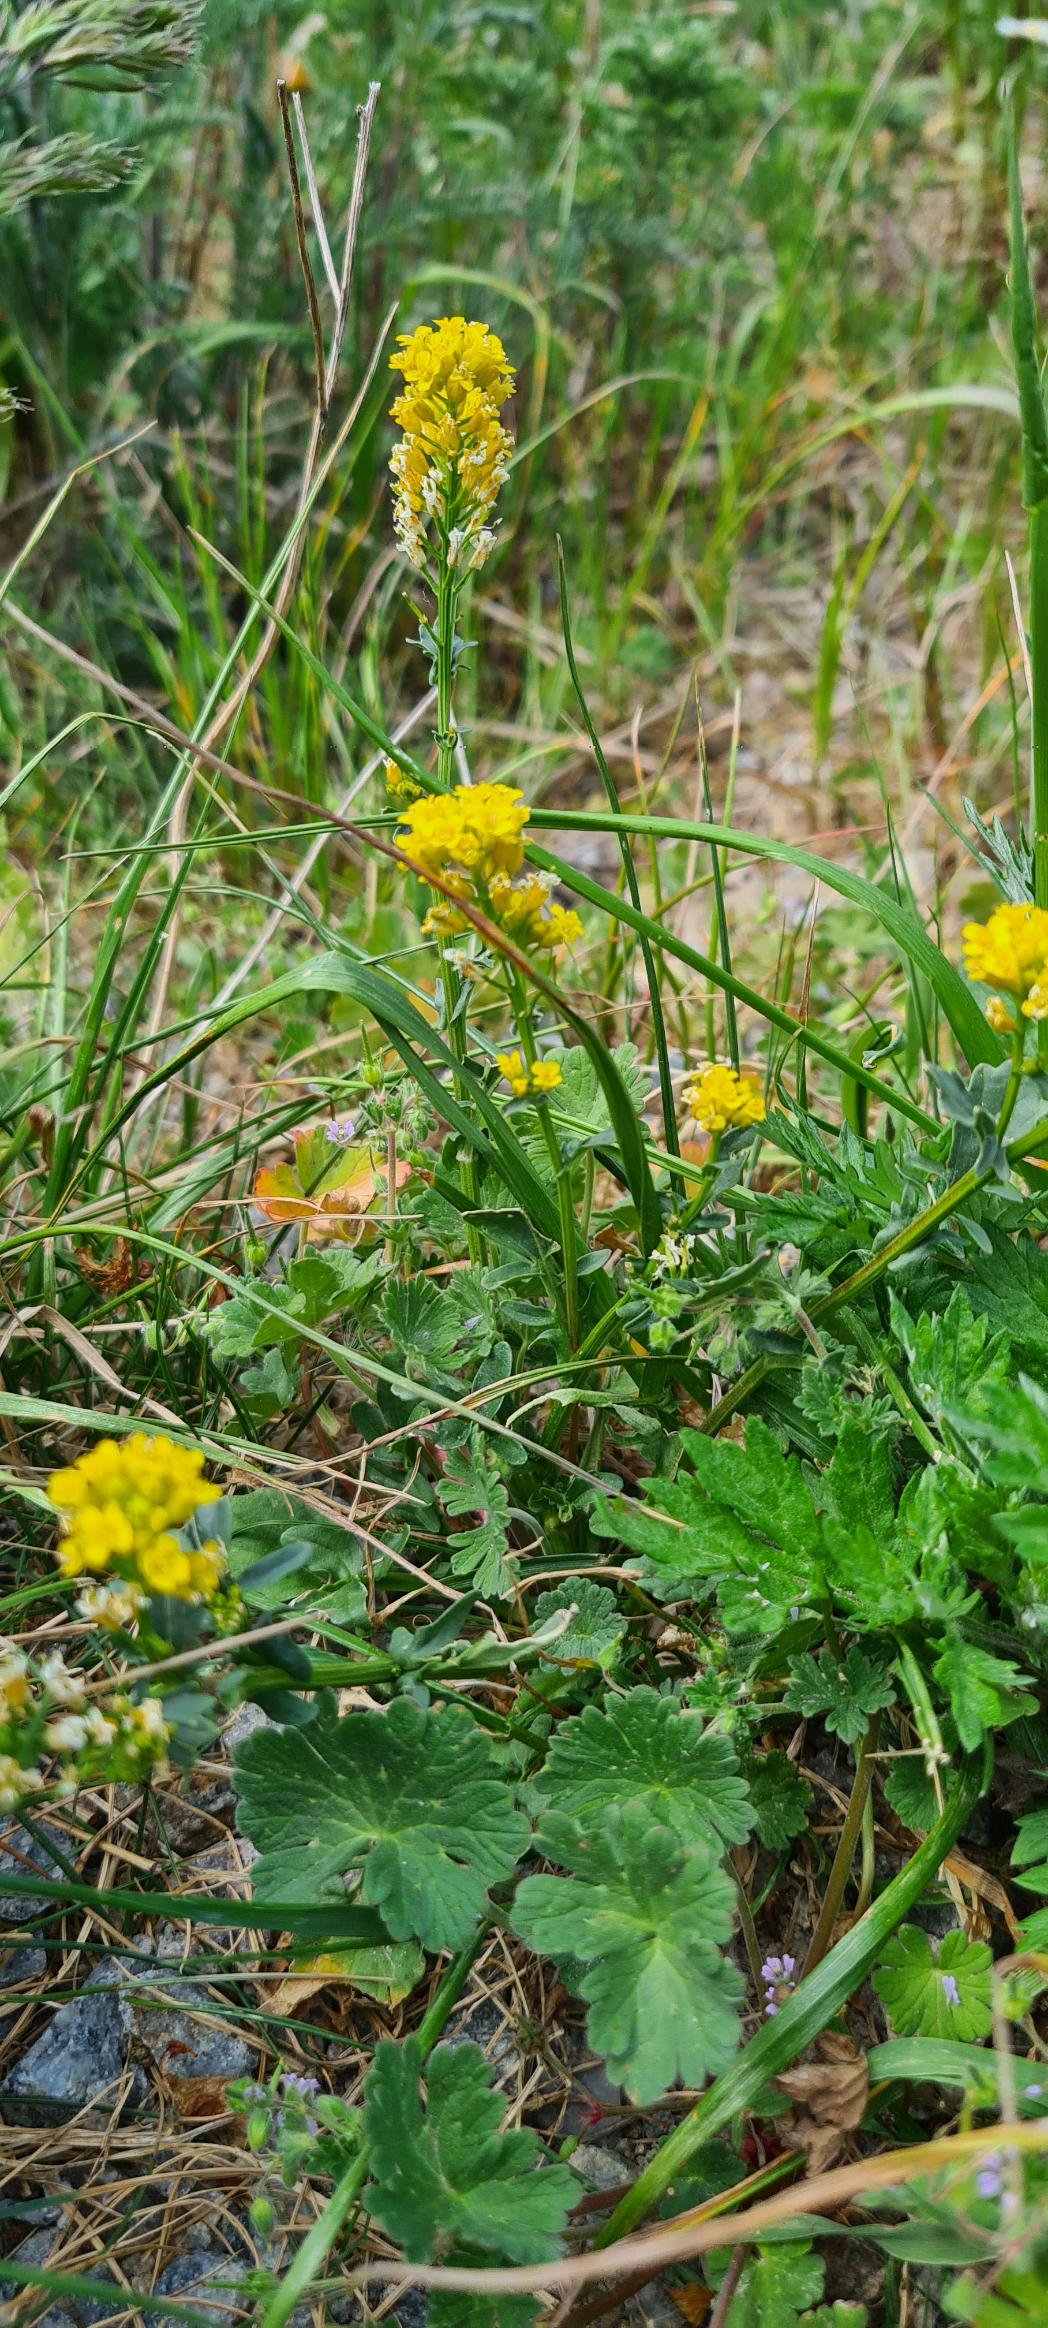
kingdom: Plantae
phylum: Tracheophyta
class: Magnoliopsida
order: Brassicales
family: Brassicaceae
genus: Barbarea
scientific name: Barbarea vulgaris
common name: Udspærret vinterkarse
